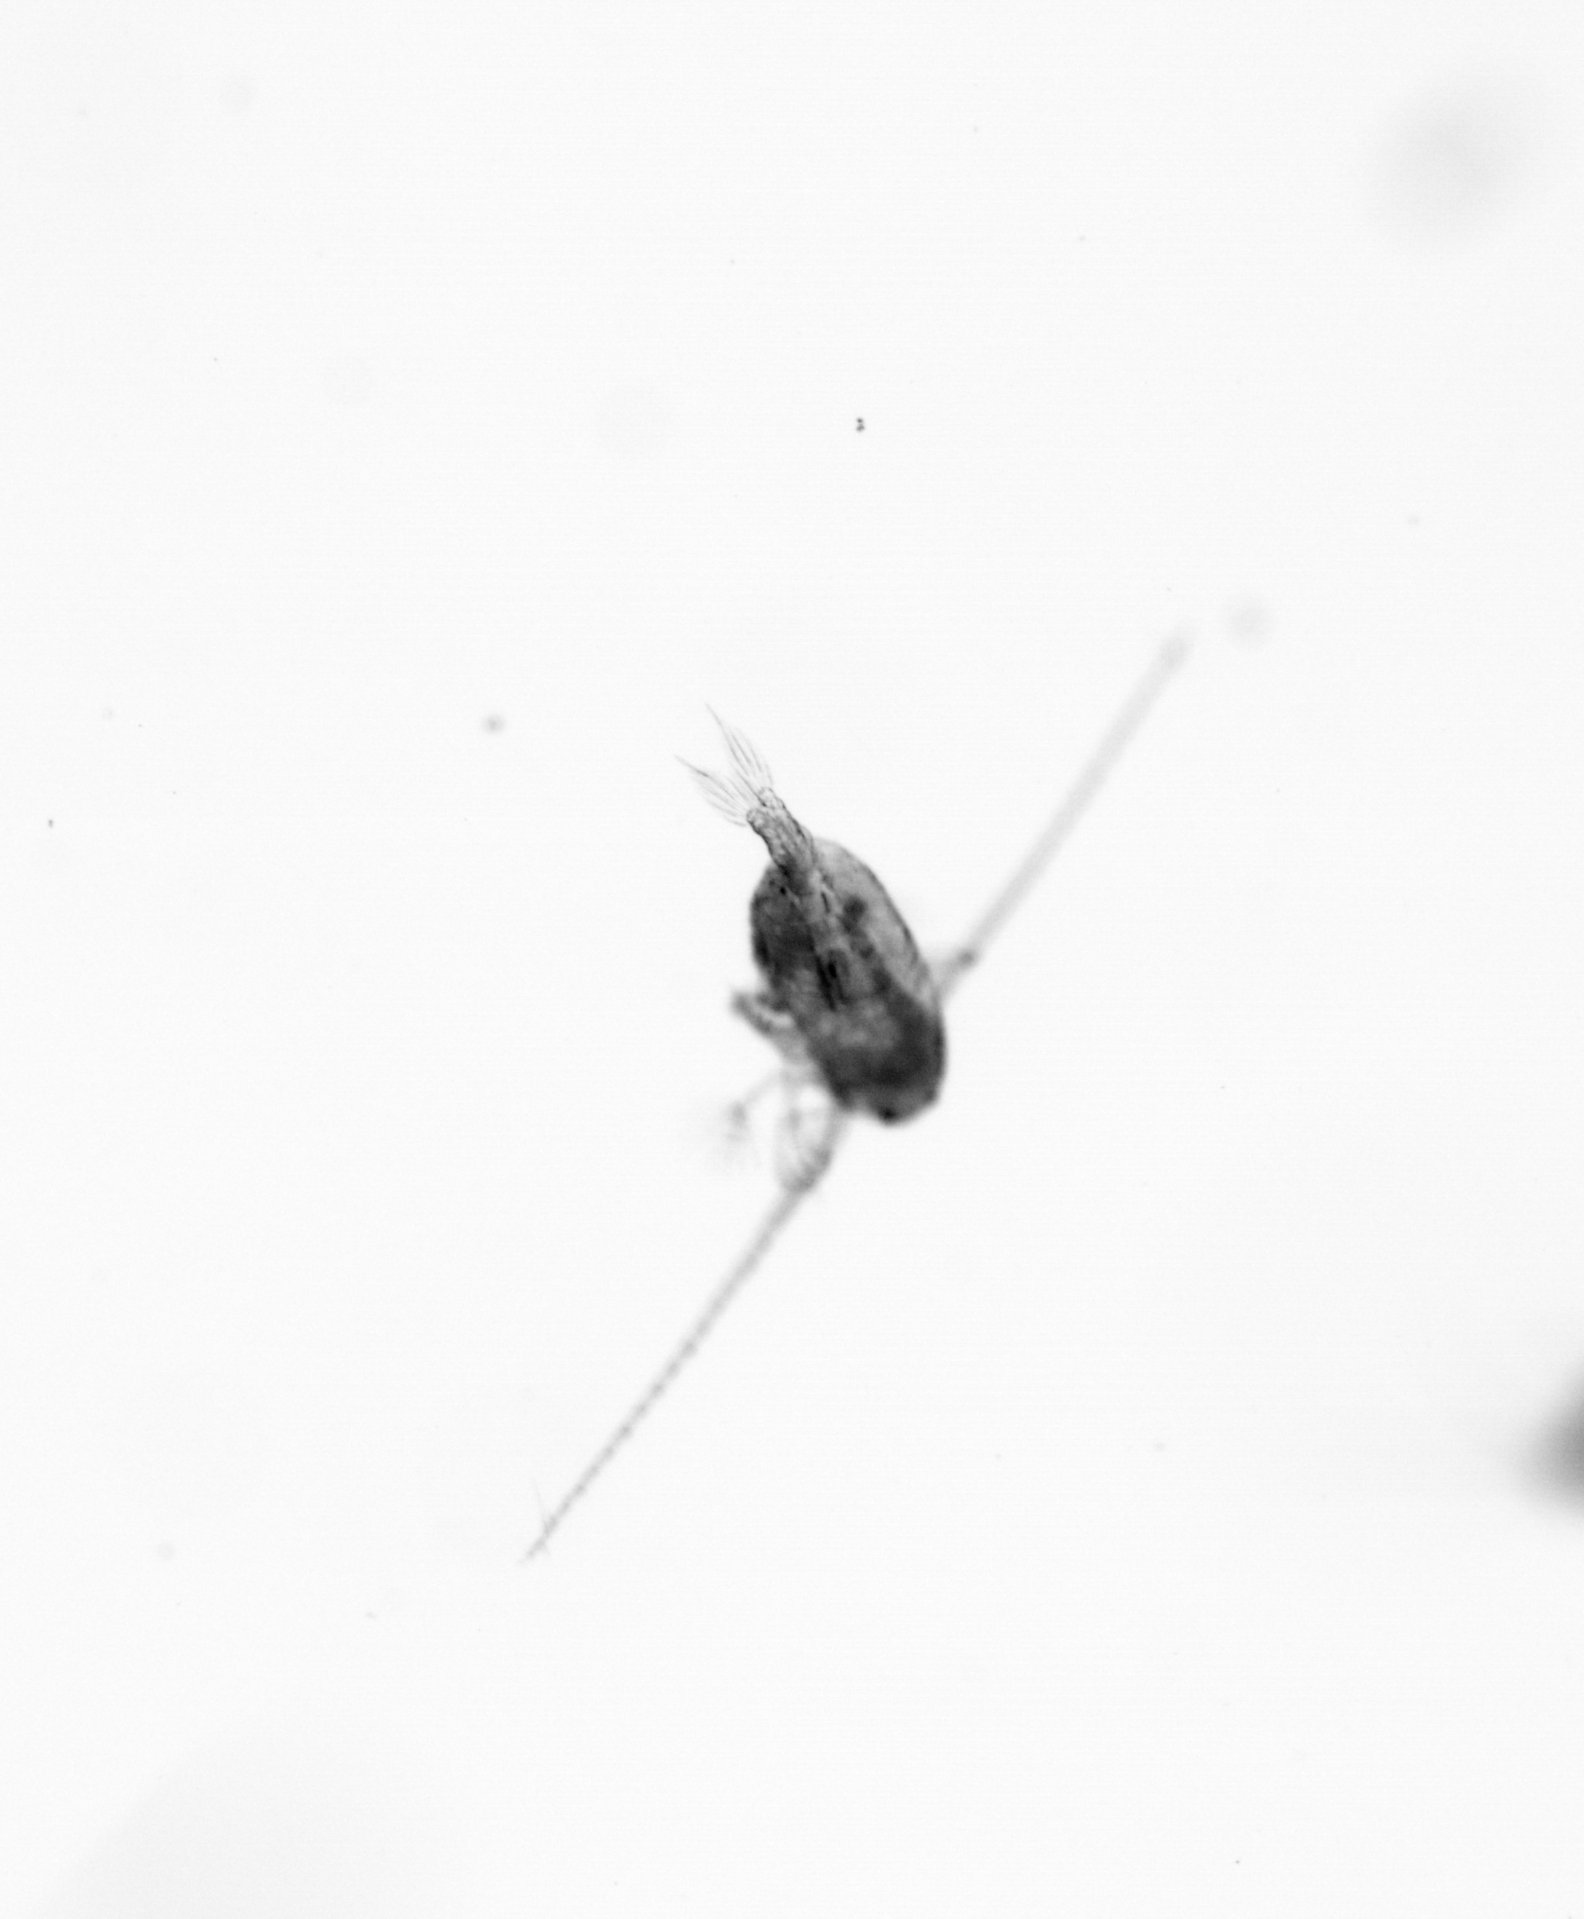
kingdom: Animalia
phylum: Arthropoda
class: Copepoda
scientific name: Copepoda
